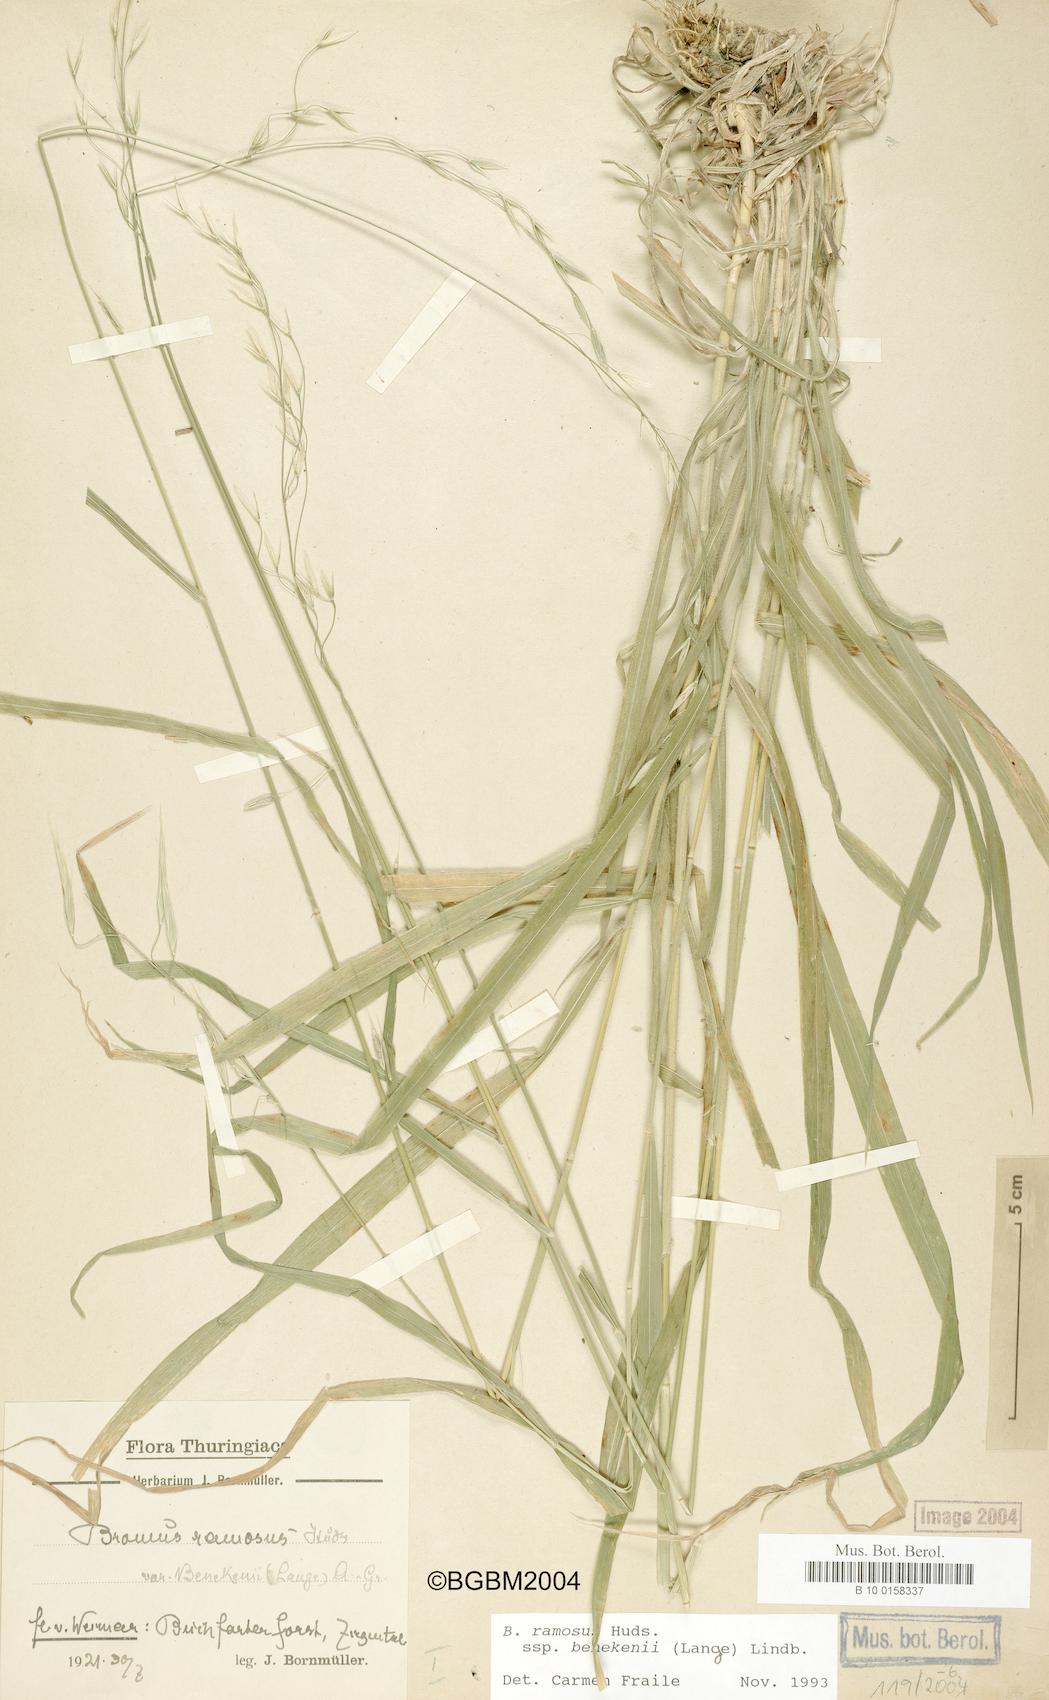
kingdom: Plantae
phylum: Tracheophyta
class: Liliopsida
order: Poales
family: Poaceae
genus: Bromus
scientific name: Bromus benekenii
